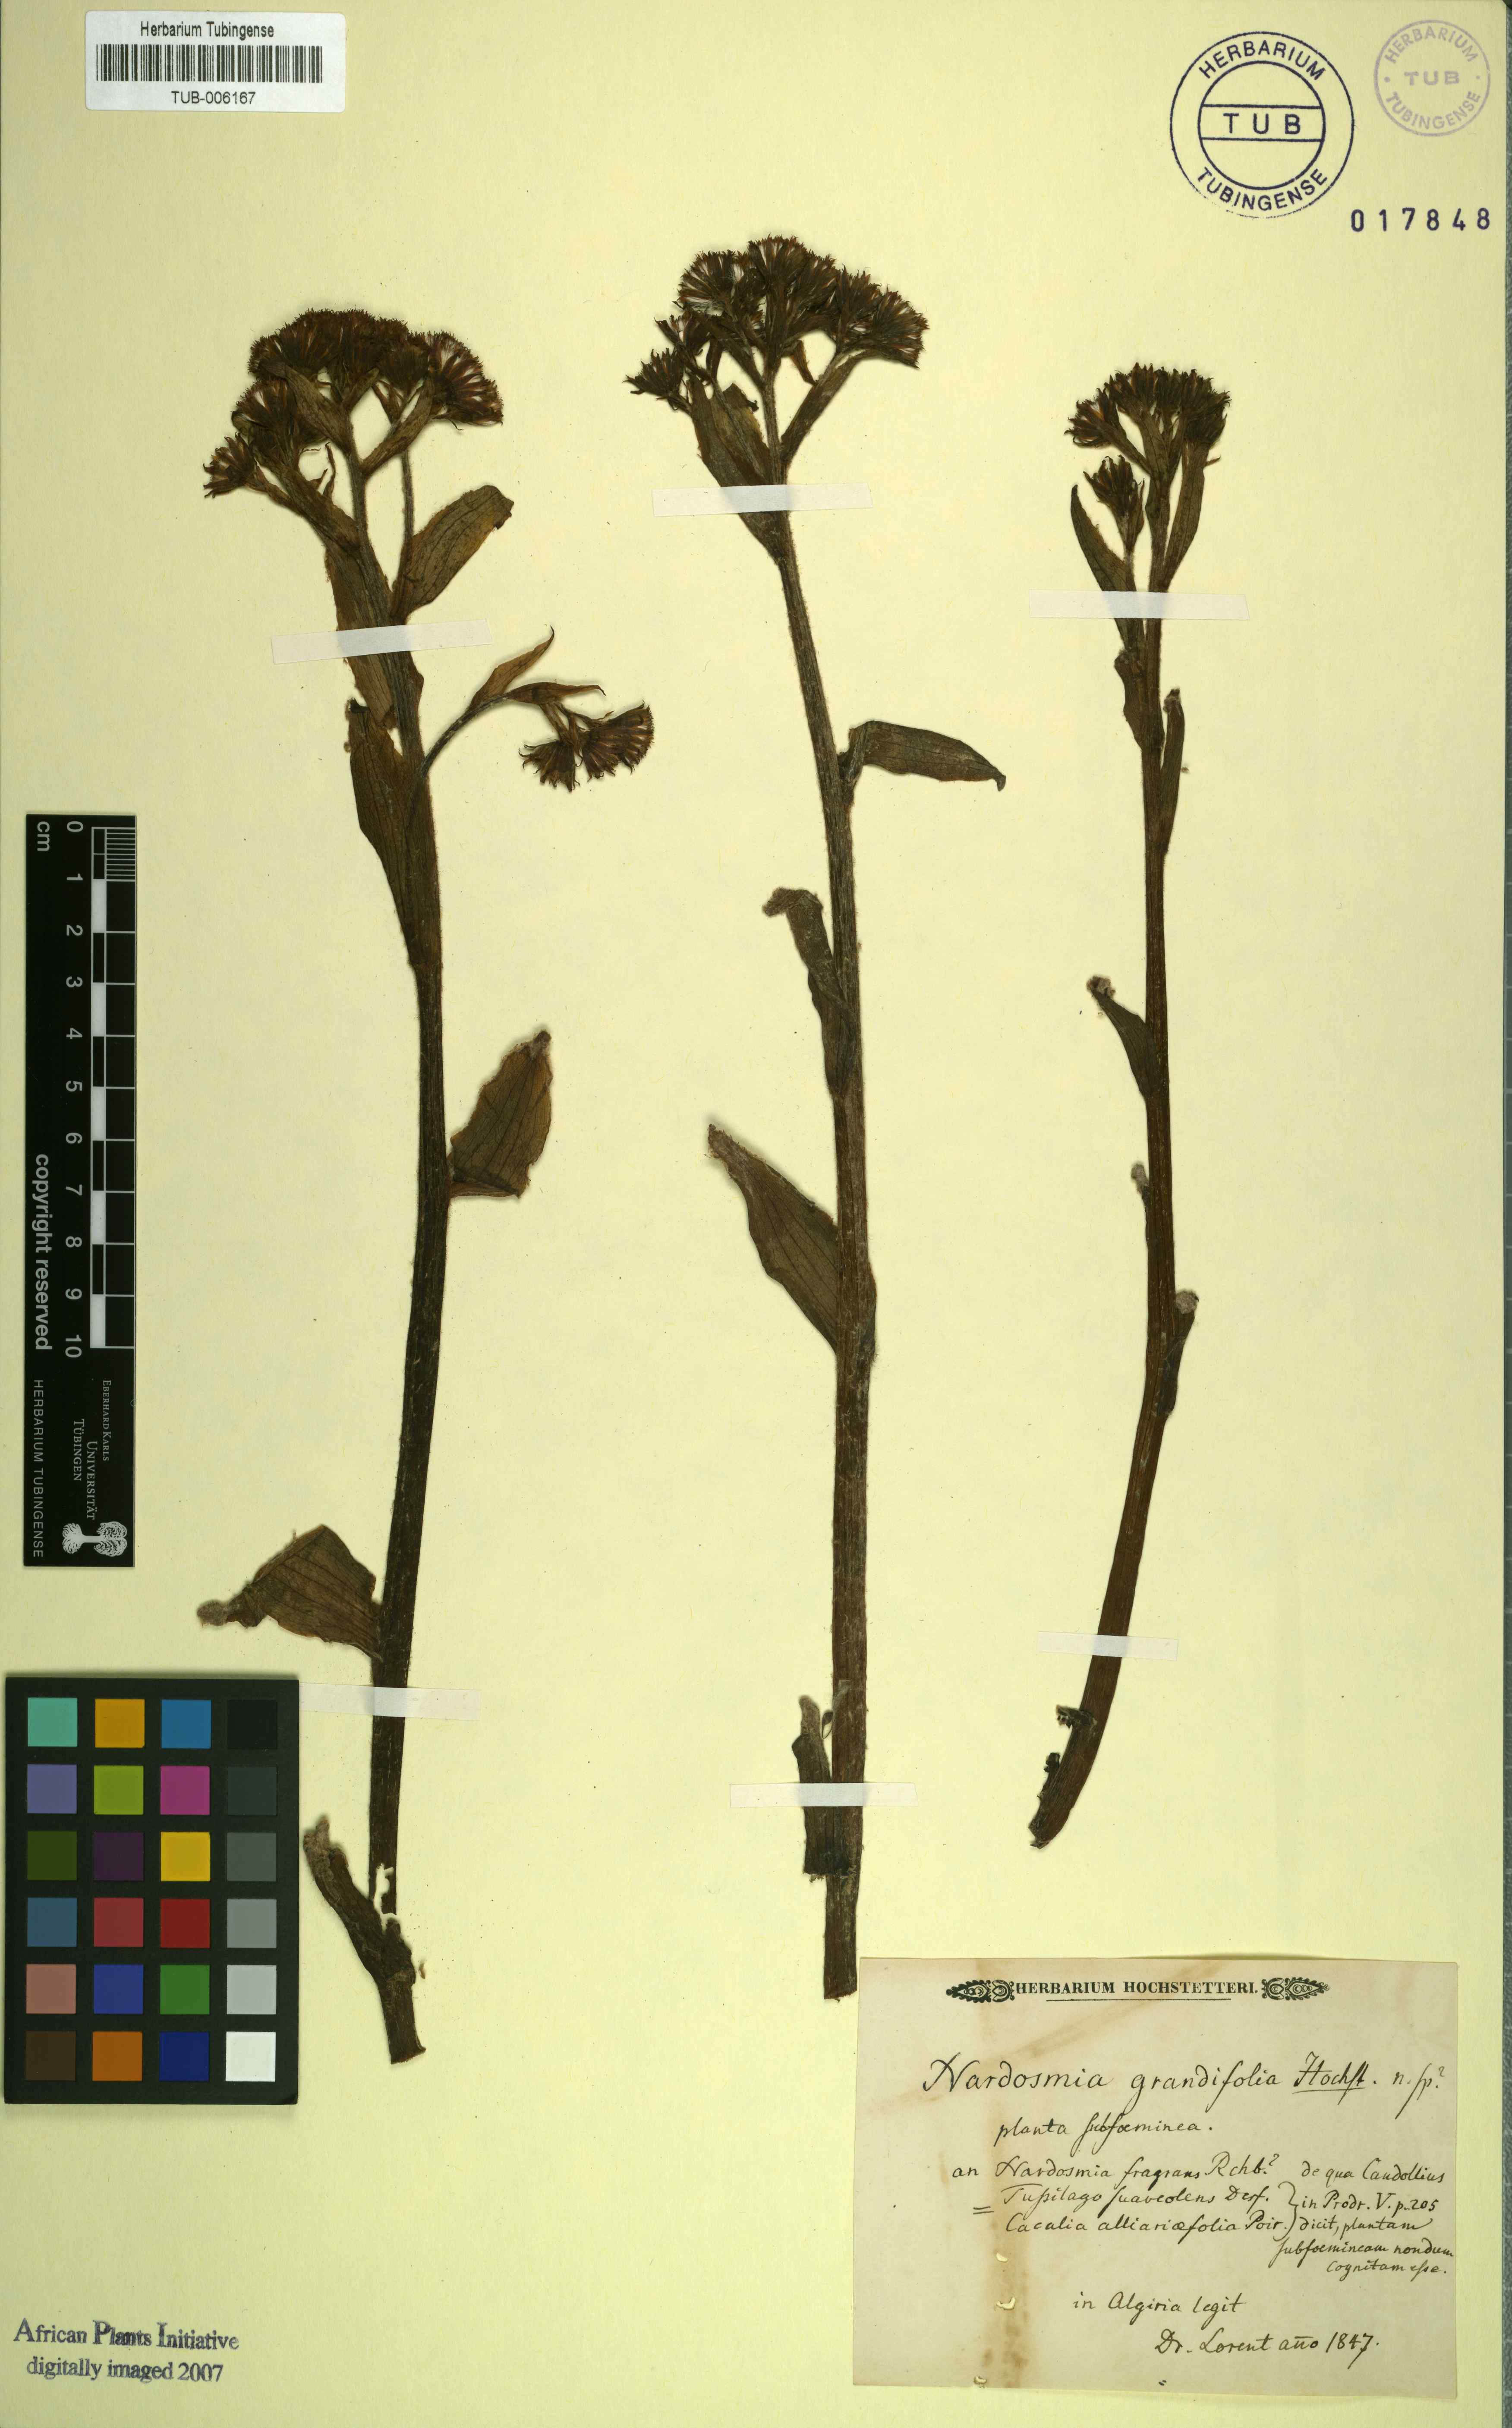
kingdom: Plantae
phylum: Tracheophyta
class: Magnoliopsida
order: Asterales
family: Asteraceae
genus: Petasites
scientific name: Petasites pyrenaicus
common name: Winter heliotrope
